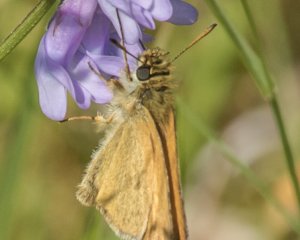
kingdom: Animalia
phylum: Arthropoda
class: Insecta
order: Lepidoptera
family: Hesperiidae
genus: Thymelicus
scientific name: Thymelicus lineola
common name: European Skipper
